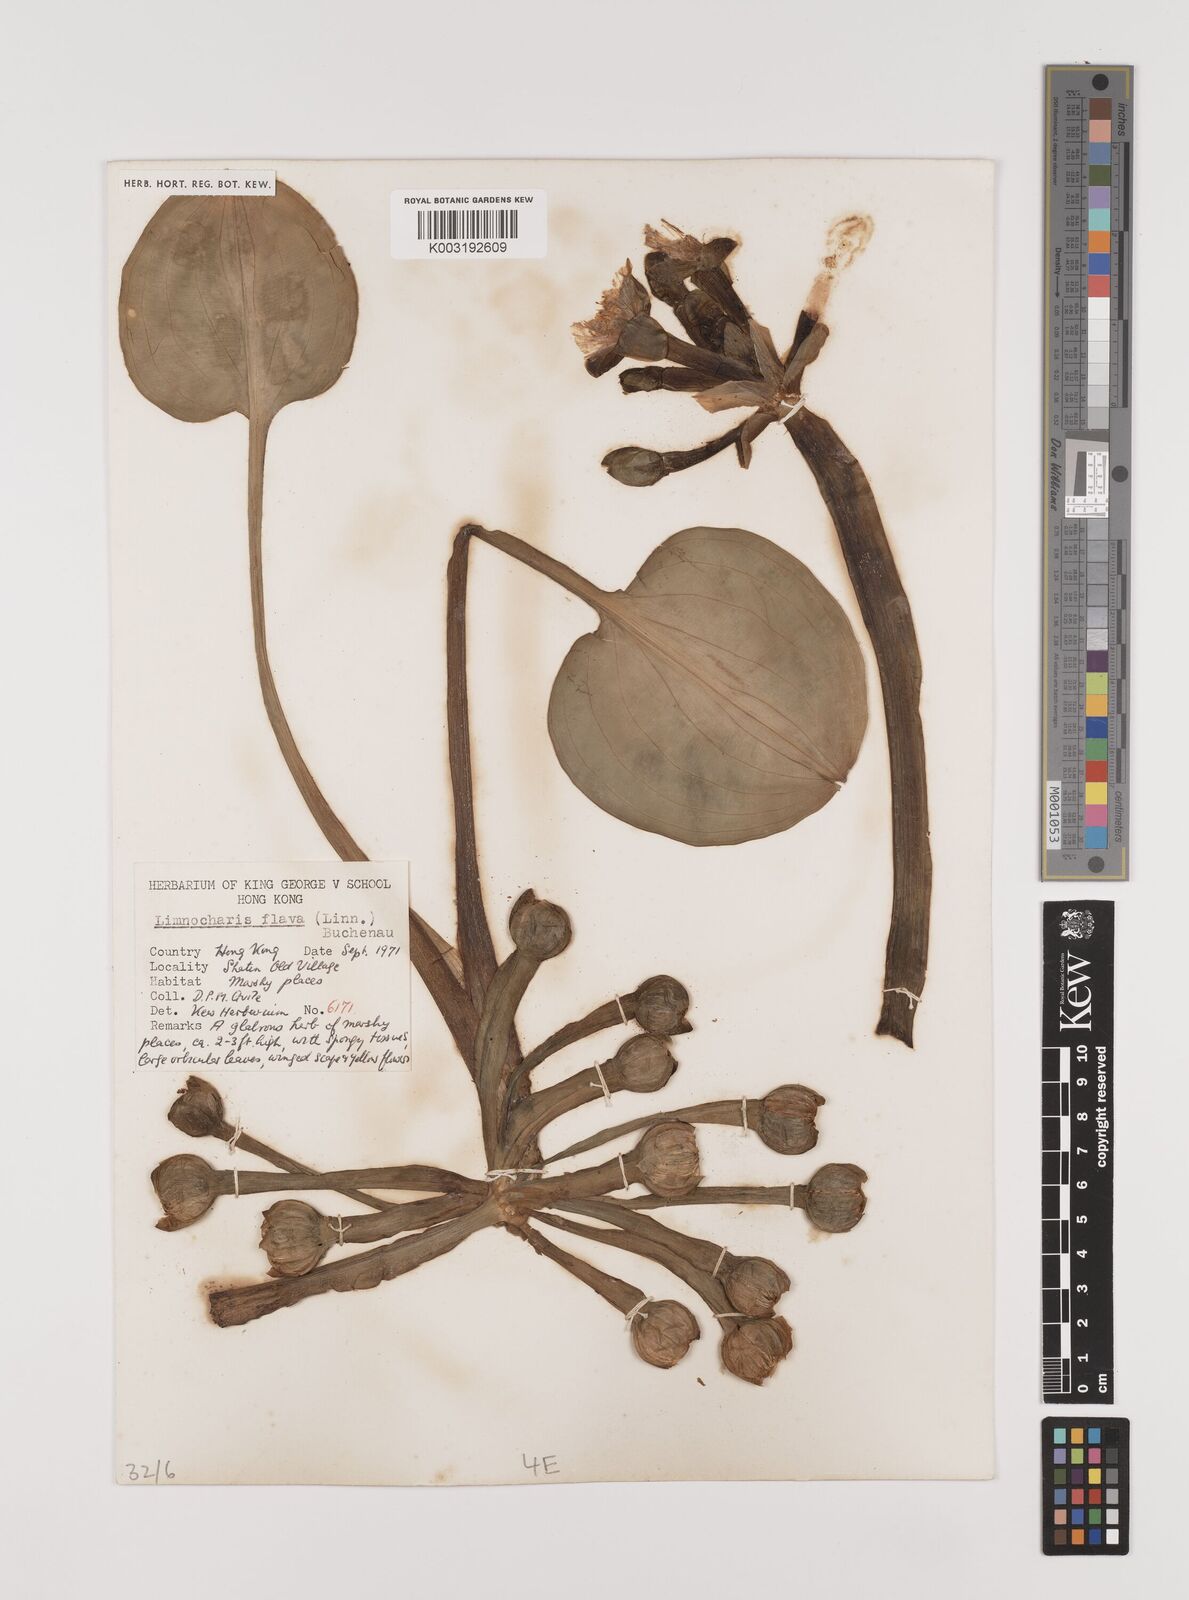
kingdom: Plantae
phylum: Tracheophyta
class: Liliopsida
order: Alismatales
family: Alismataceae
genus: Limnocharis
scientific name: Limnocharis flava
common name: Sawah-flower-rush
